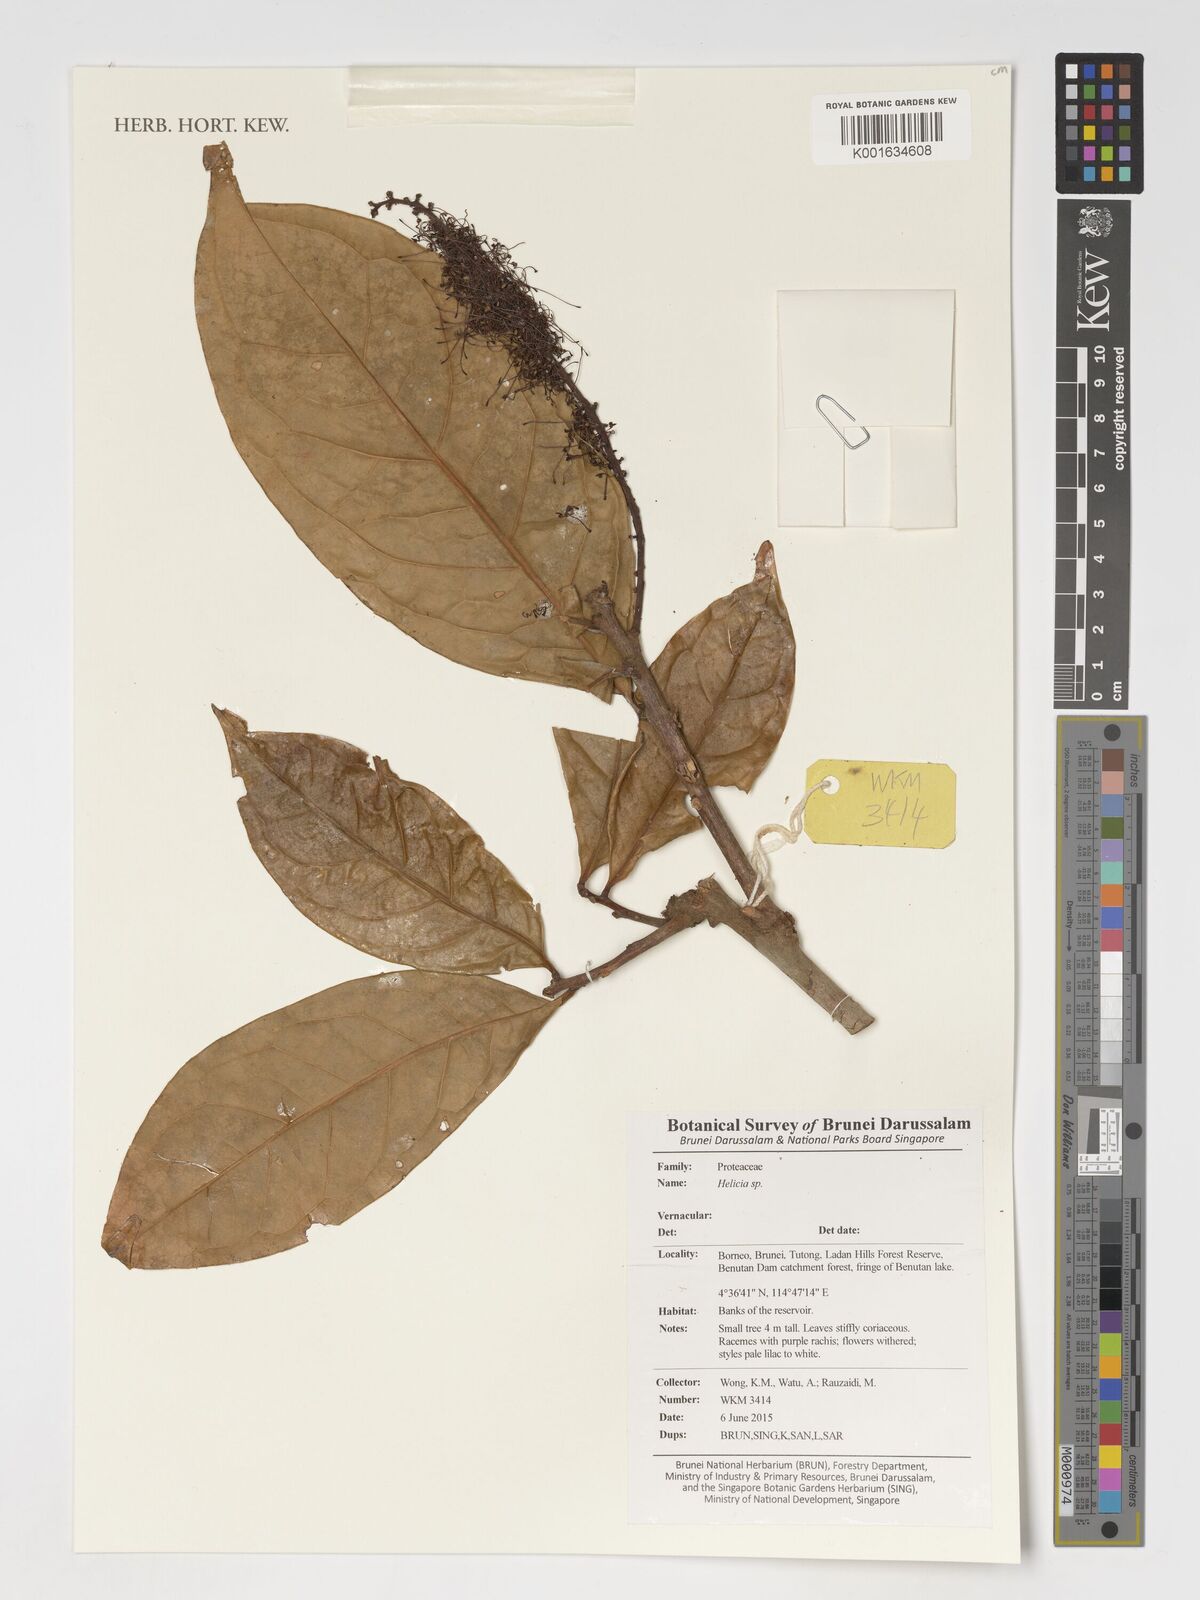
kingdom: Plantae
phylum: Tracheophyta
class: Magnoliopsida
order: Proteales
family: Proteaceae
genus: Helicia
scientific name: Helicia
